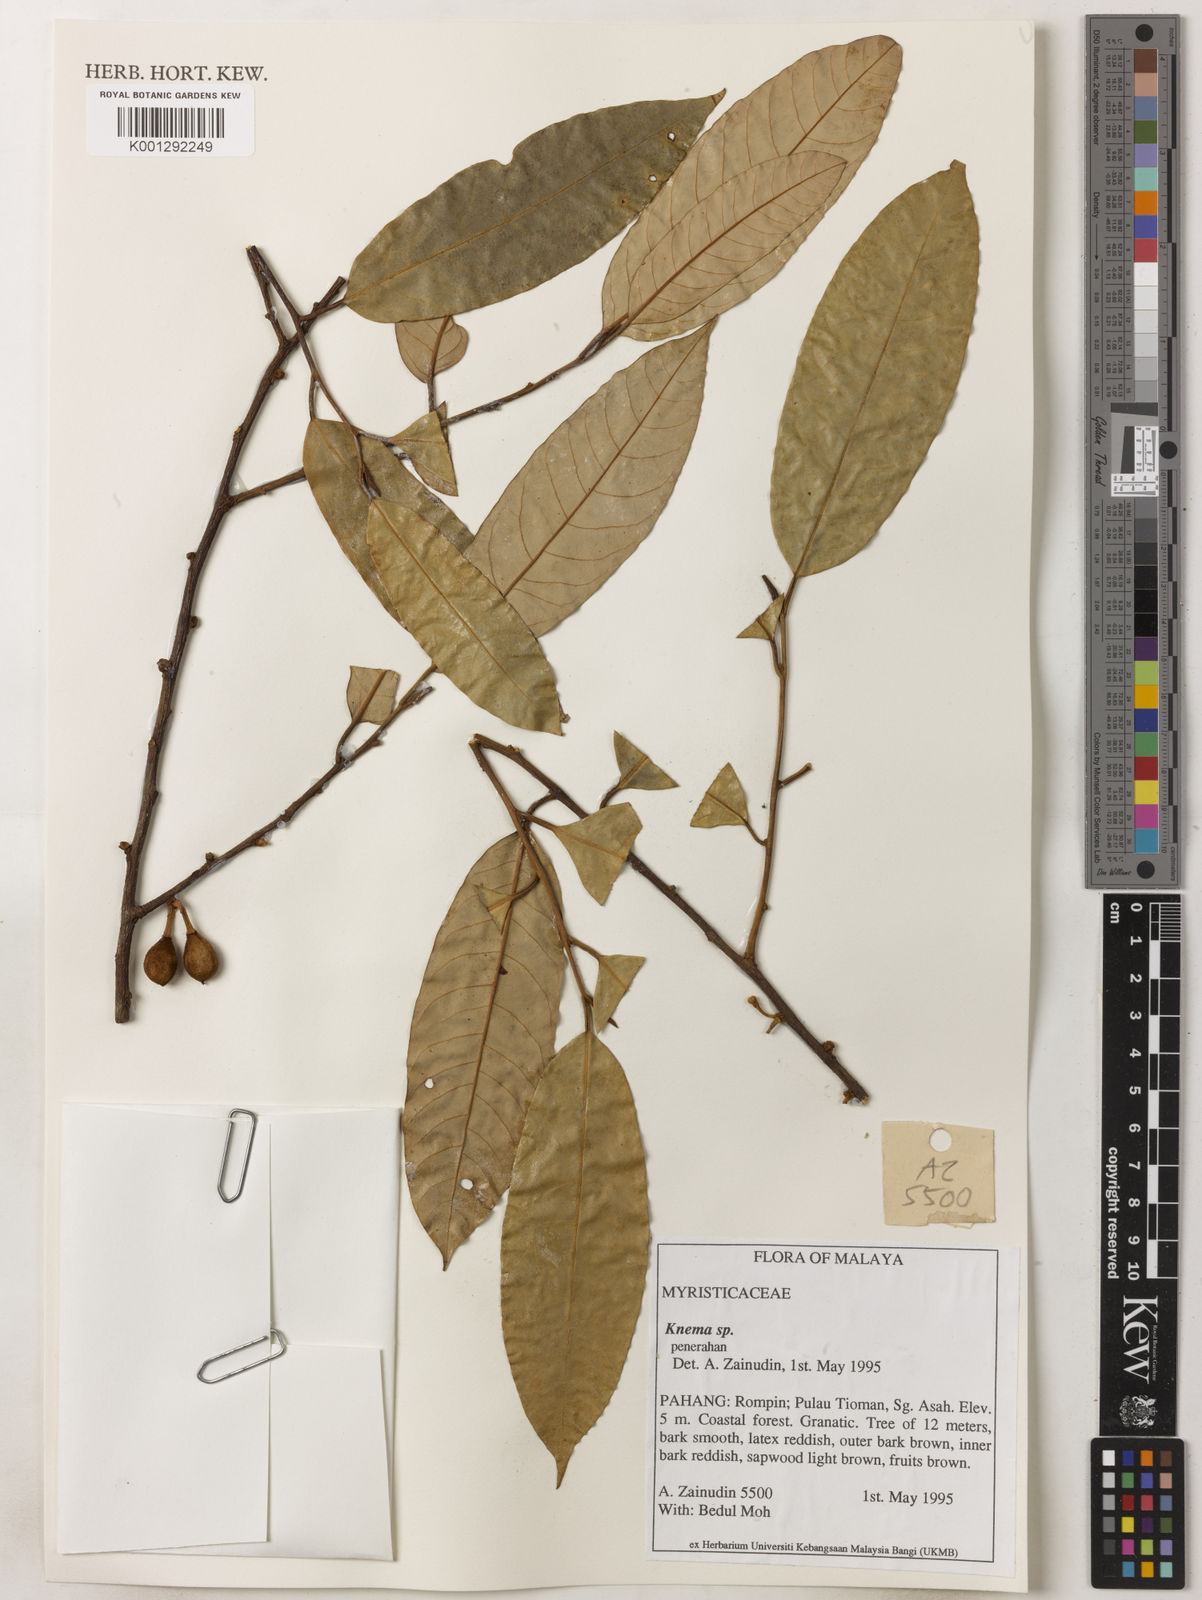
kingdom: Plantae
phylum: Tracheophyta
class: Magnoliopsida
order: Magnoliales
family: Myristicaceae
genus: Knema
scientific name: Knema
